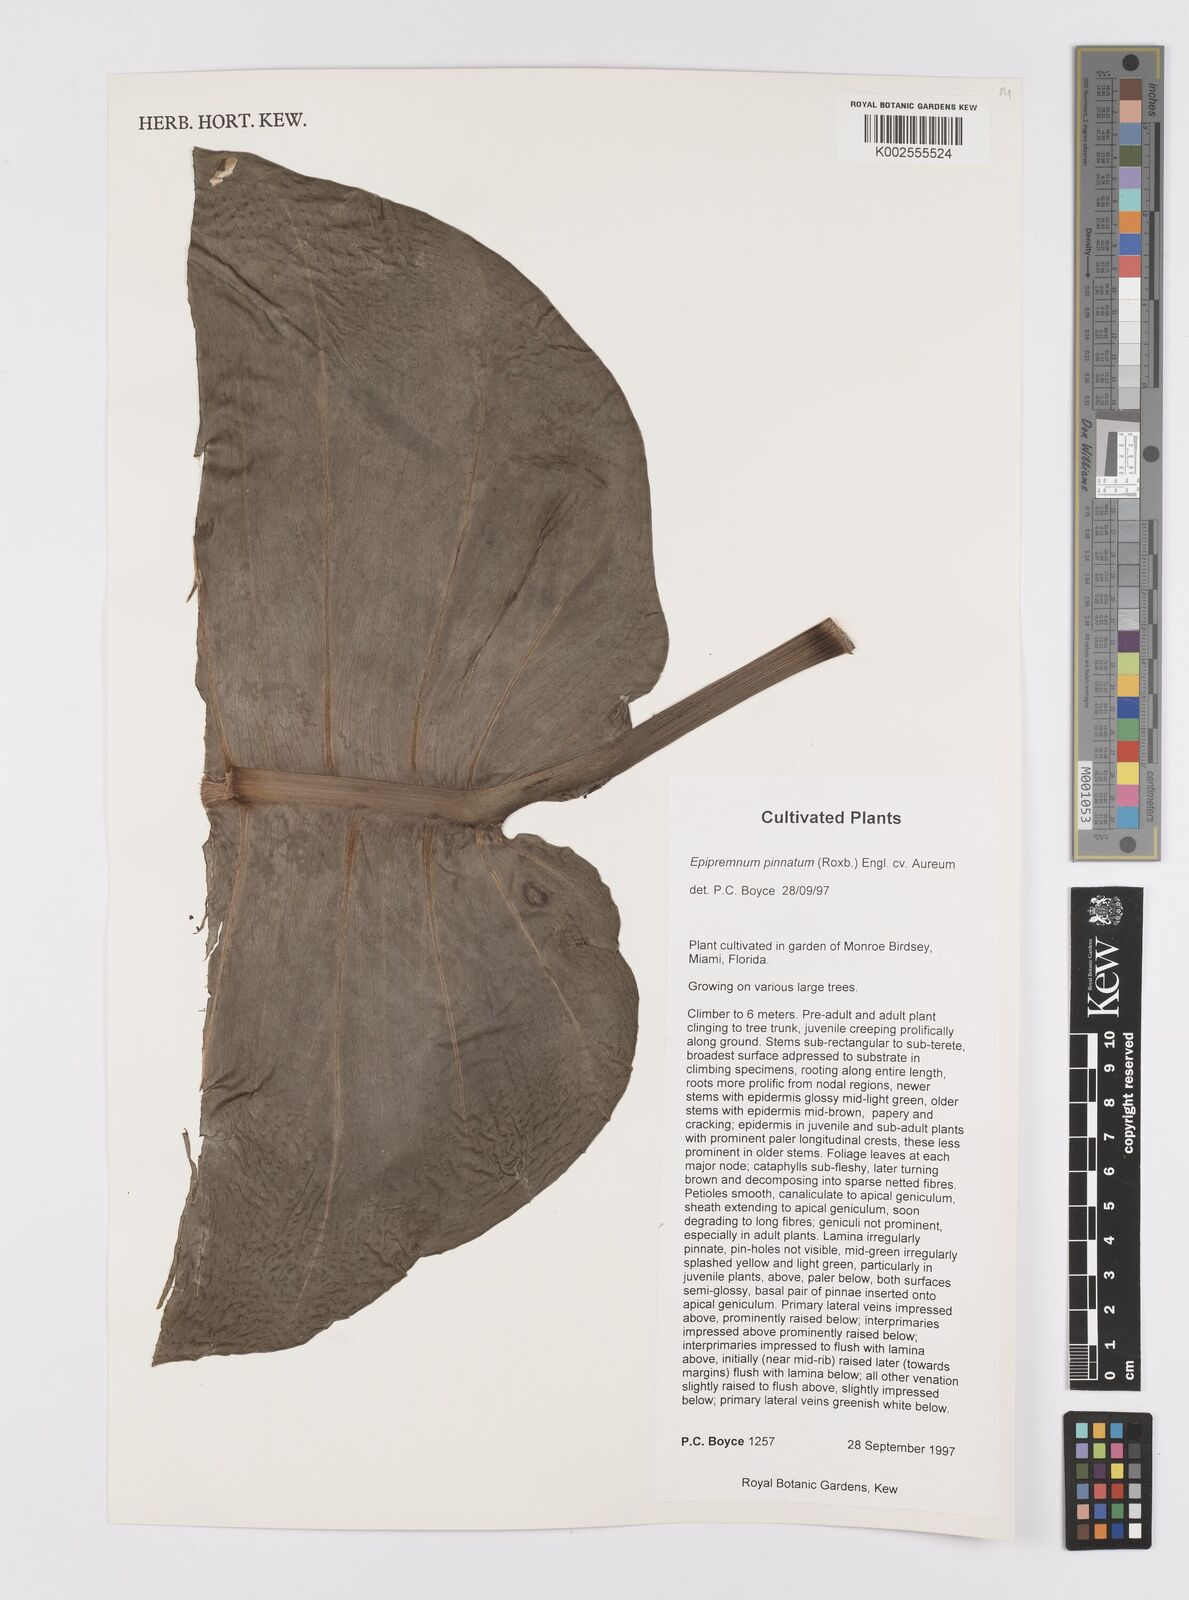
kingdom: Plantae
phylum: Tracheophyta
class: Liliopsida
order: Alismatales
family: Araceae
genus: Epipremnum
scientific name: Epipremnum aureum
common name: Golden hunter's-robe
